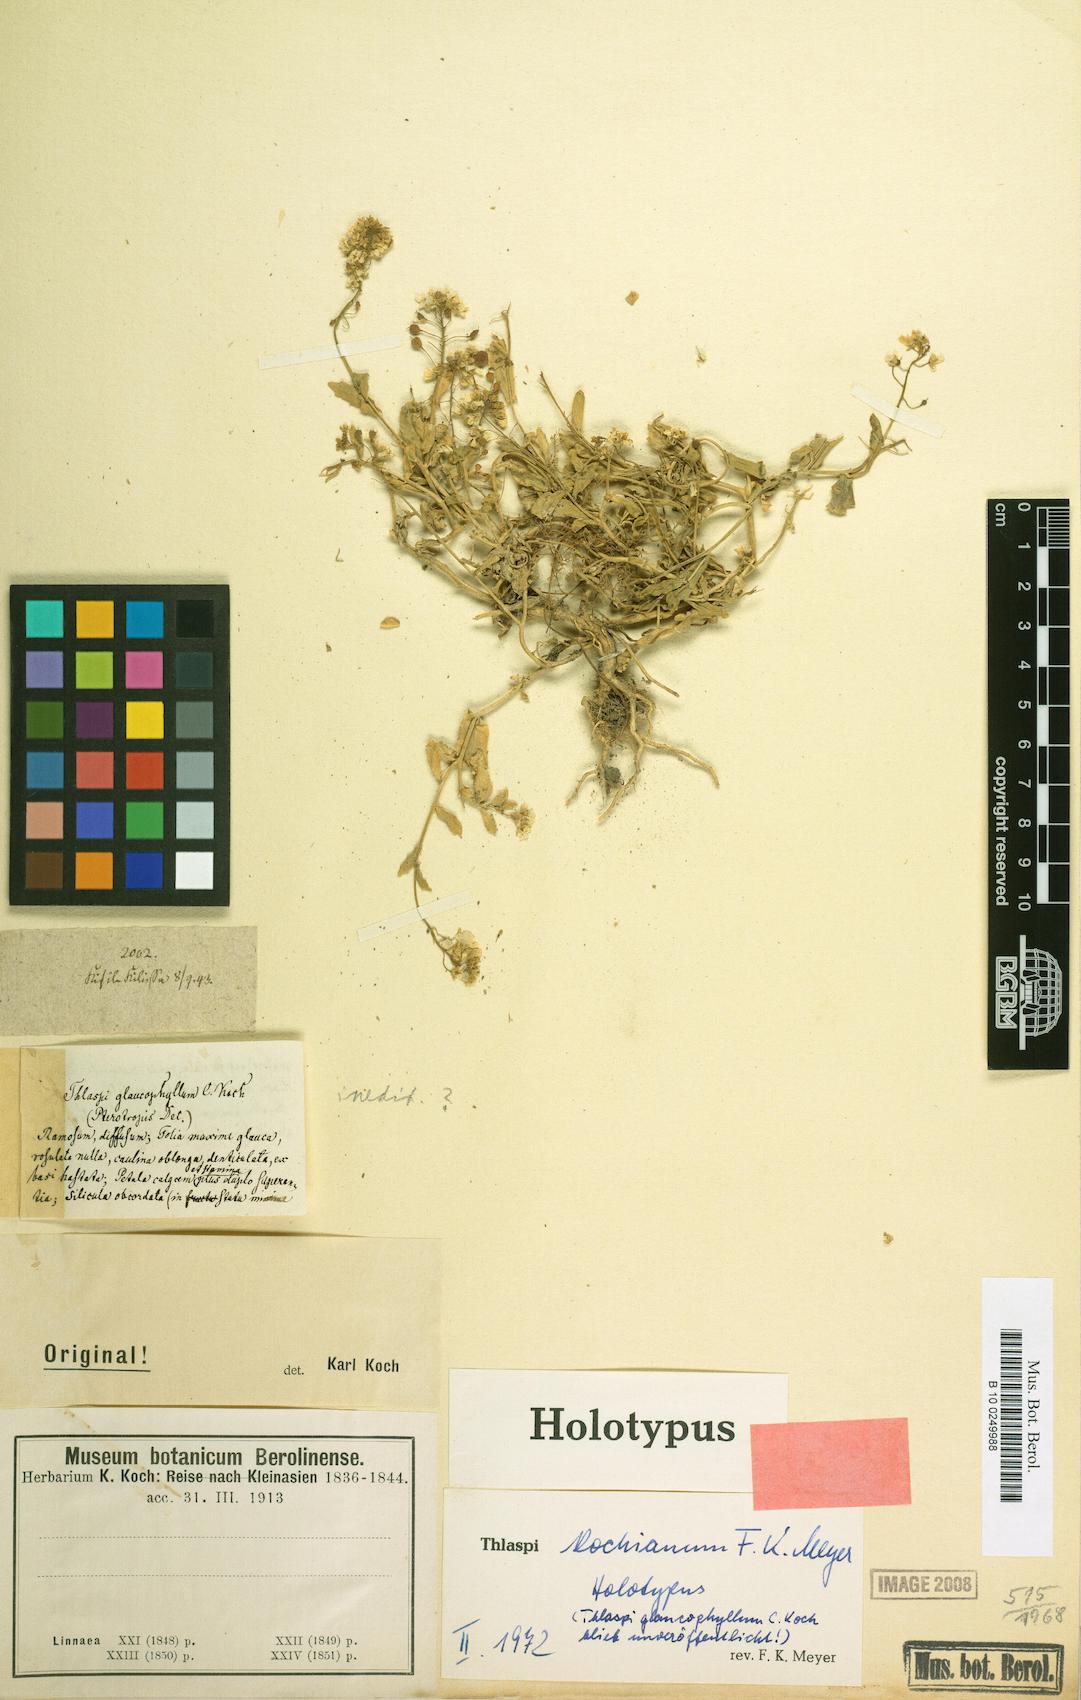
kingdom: Plantae
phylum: Tracheophyta
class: Magnoliopsida
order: Brassicales
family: Brassicaceae
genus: Thlaspi
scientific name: Thlaspi huetii
